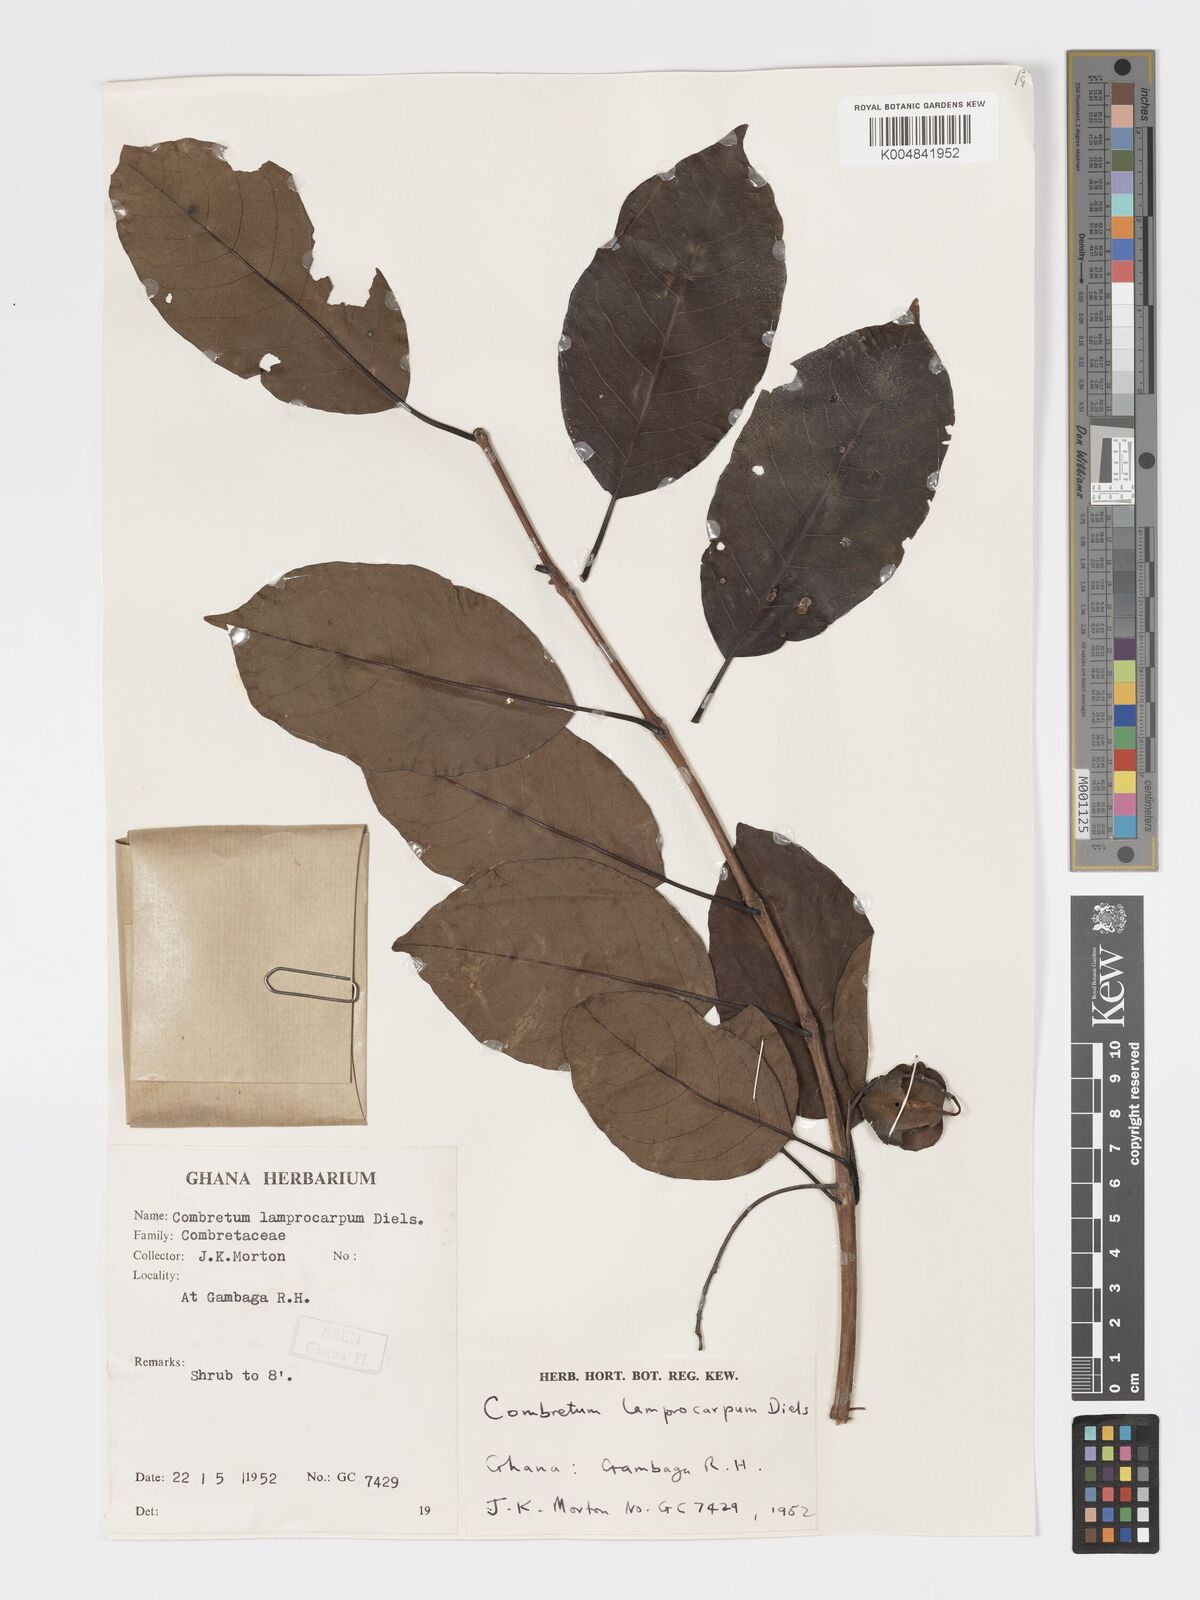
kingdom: Plantae
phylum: Tracheophyta
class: Magnoliopsida
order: Myrtales
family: Combretaceae
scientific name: Combretaceae
